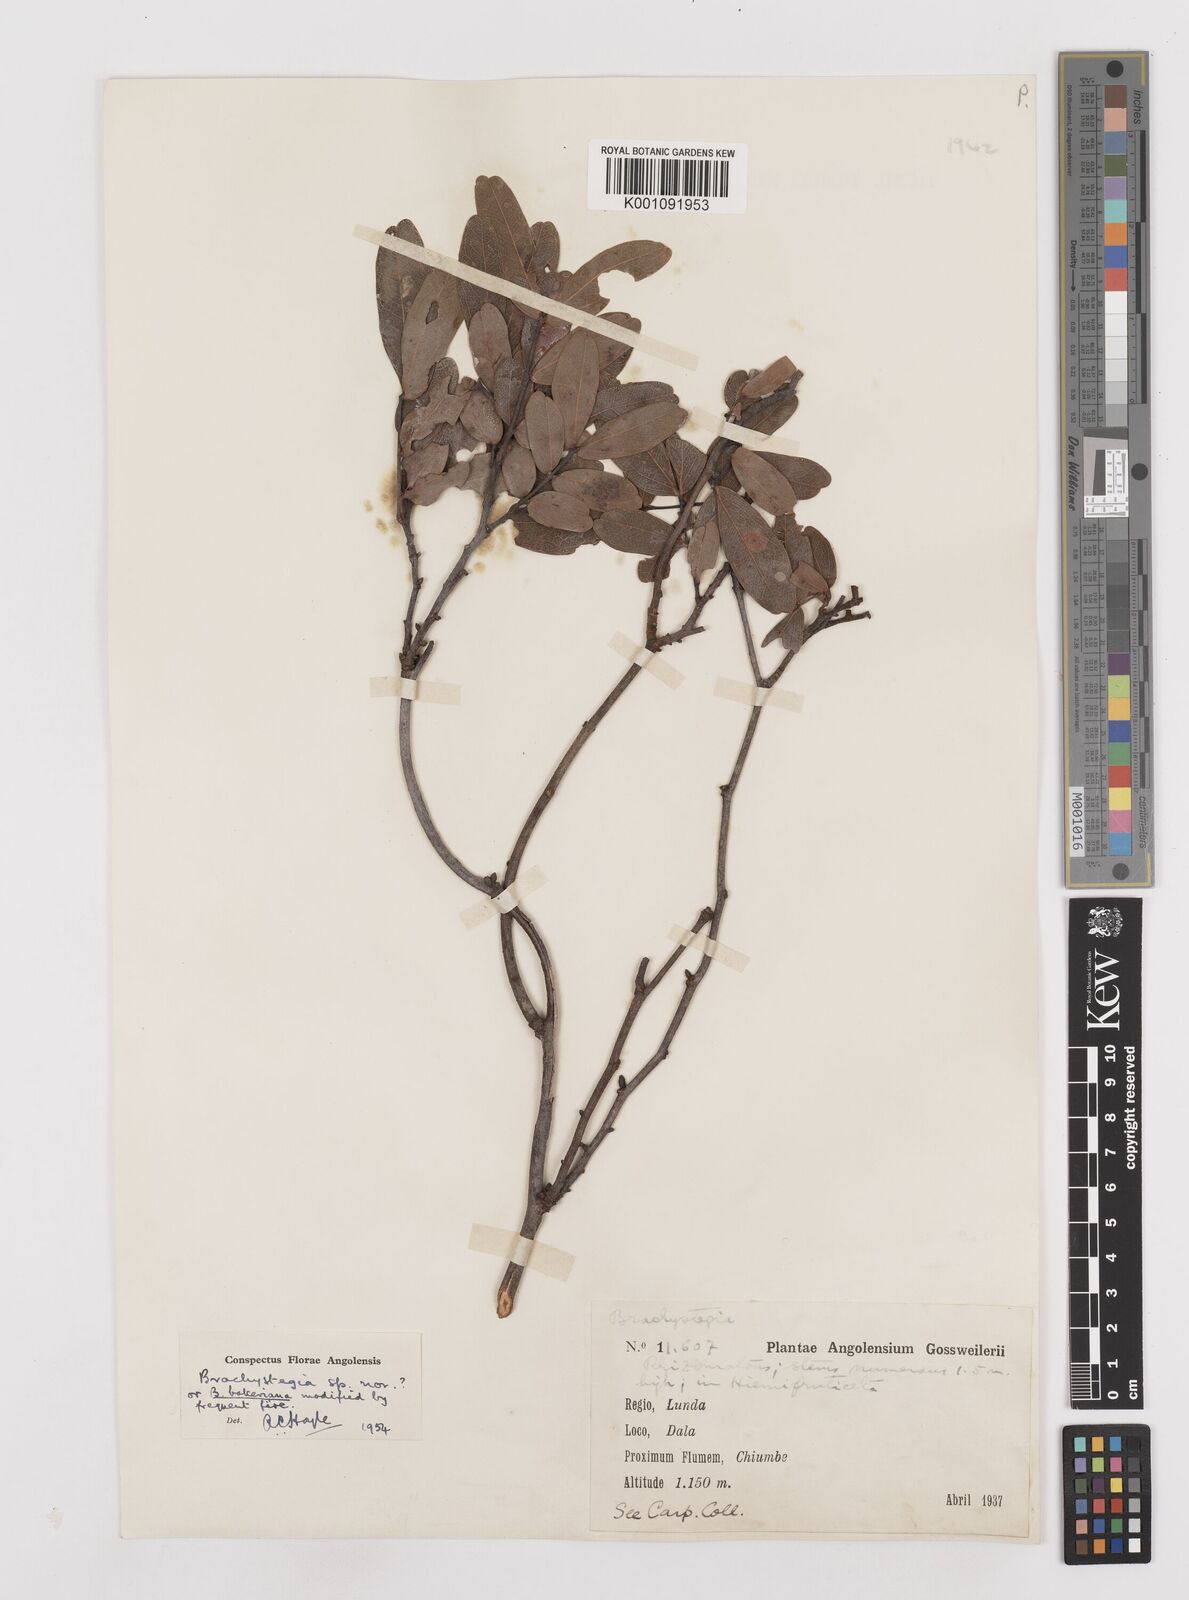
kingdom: Plantae
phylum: Tracheophyta
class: Magnoliopsida
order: Fabales
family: Fabaceae
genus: Brachystegia
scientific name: Brachystegia bakeriana
